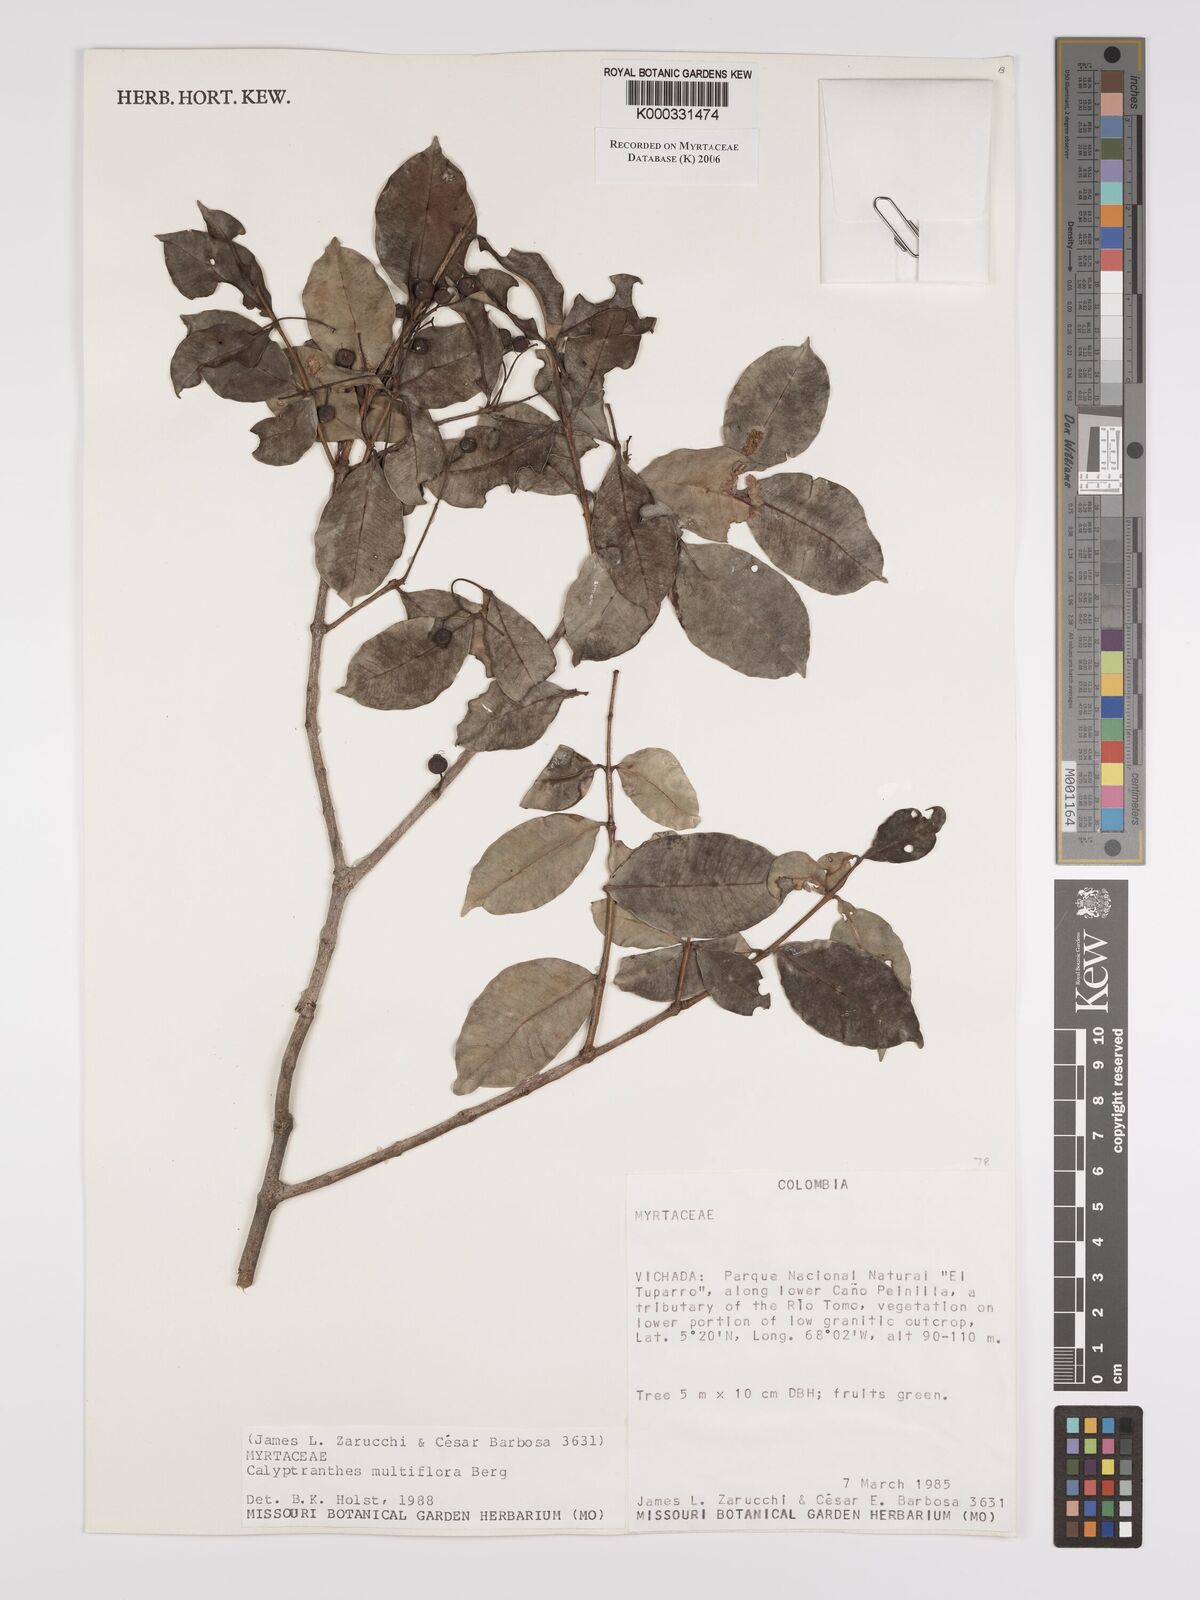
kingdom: Plantae
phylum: Tracheophyta
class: Magnoliopsida
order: Myrtales
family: Myrtaceae
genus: Myrcia
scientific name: Myrcia aulomyrcioides
